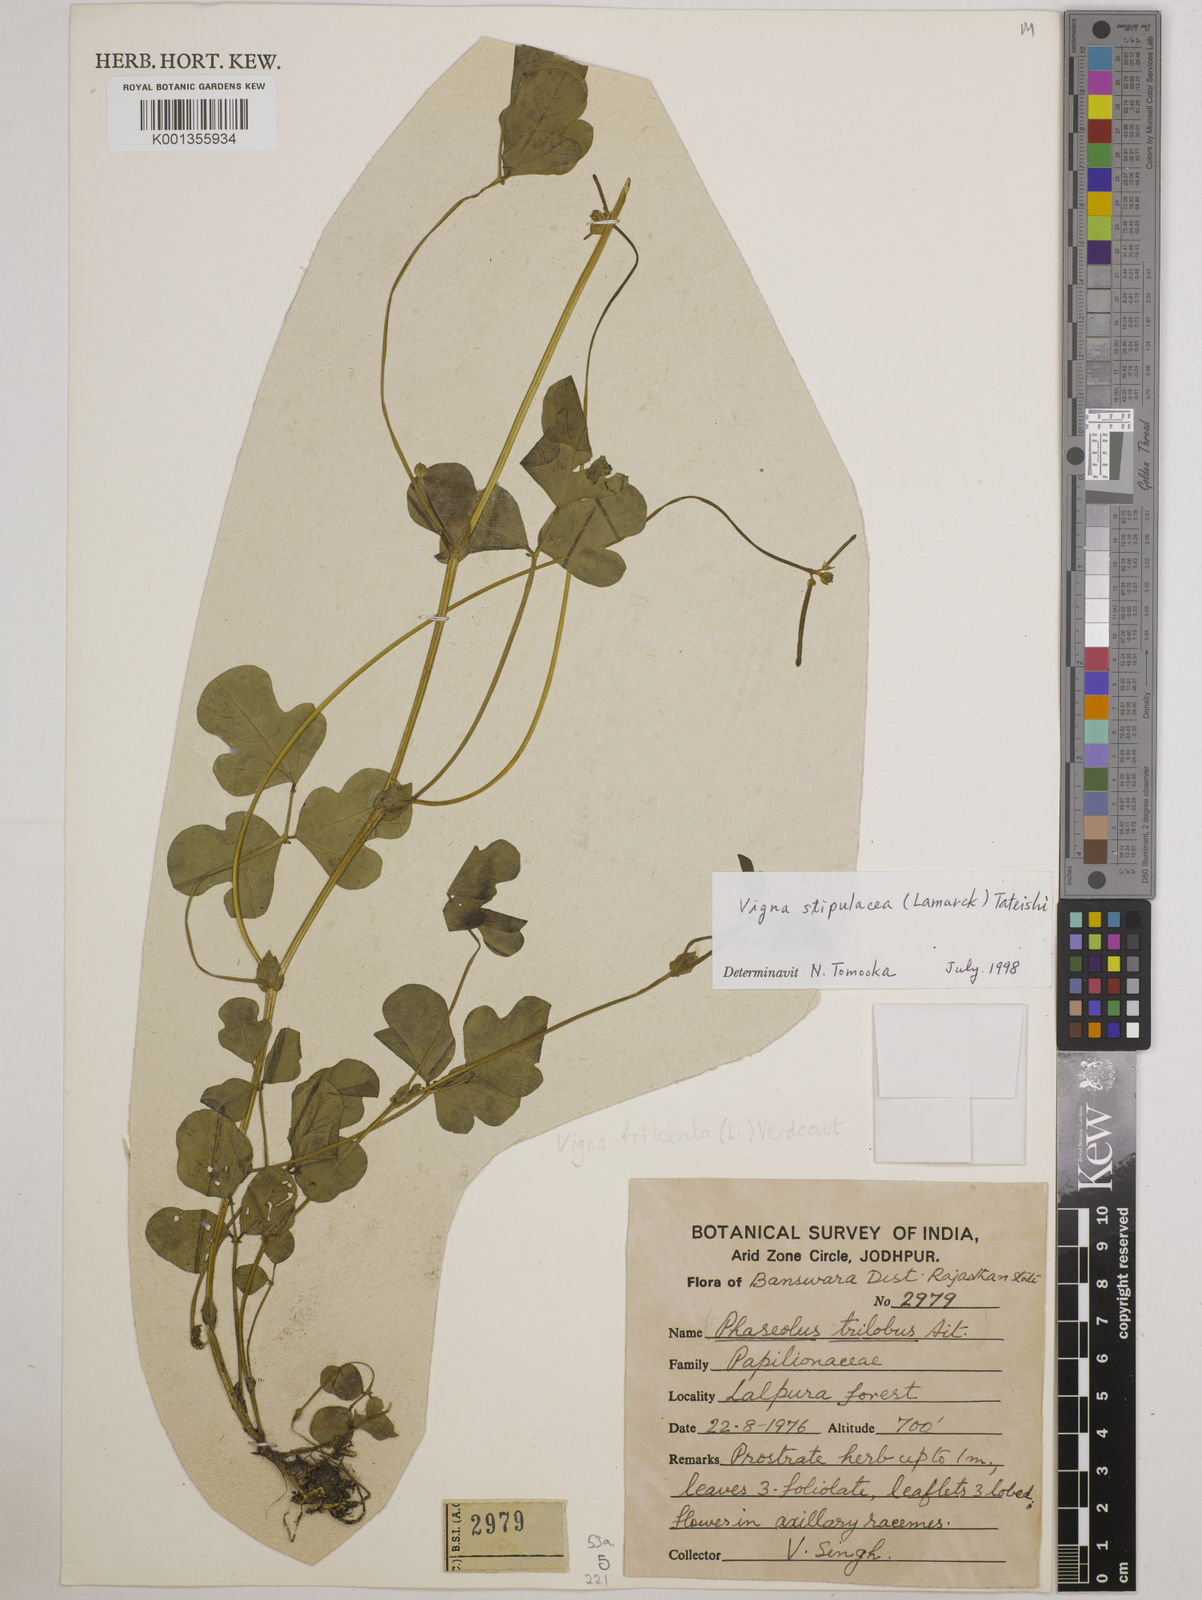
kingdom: Plantae
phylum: Tracheophyta
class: Magnoliopsida
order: Fabales
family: Fabaceae
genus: Pueraria
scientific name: Pueraria montana
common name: Kudzu
